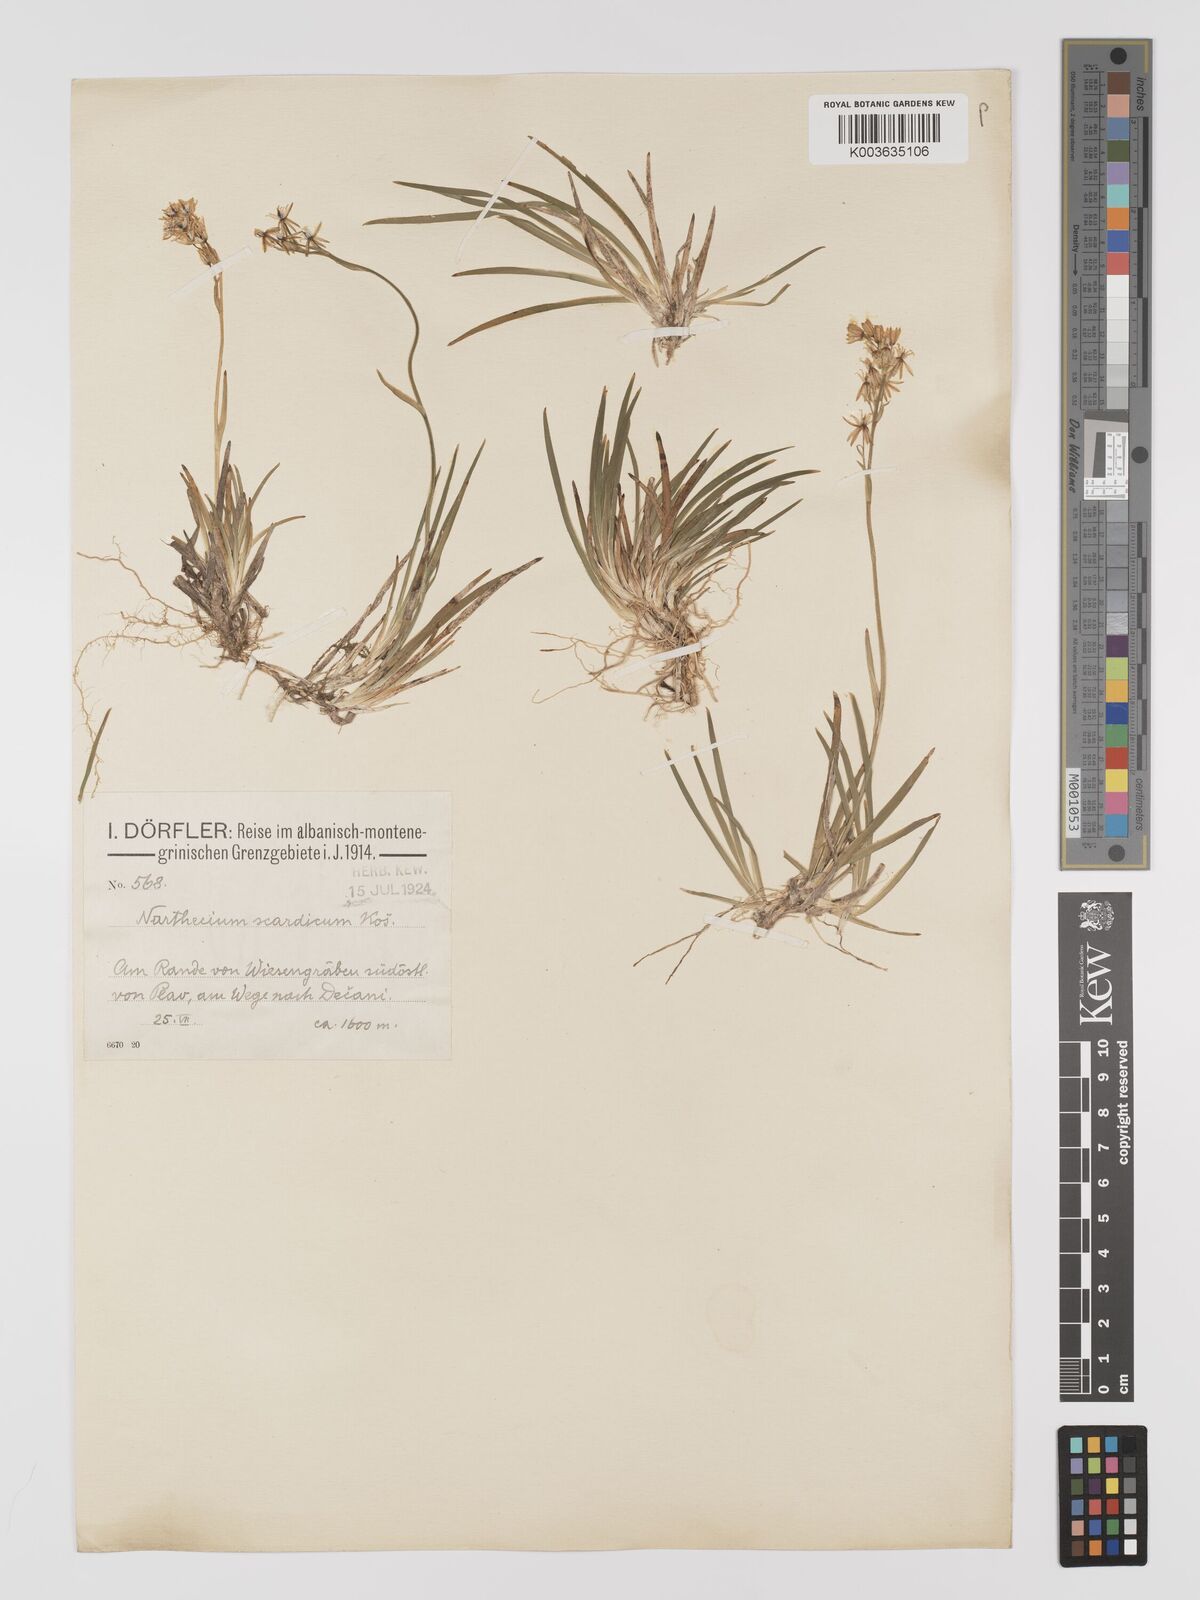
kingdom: Plantae
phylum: Tracheophyta
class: Liliopsida
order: Dioscoreales
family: Nartheciaceae
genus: Narthecium
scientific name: Narthecium scardicum
